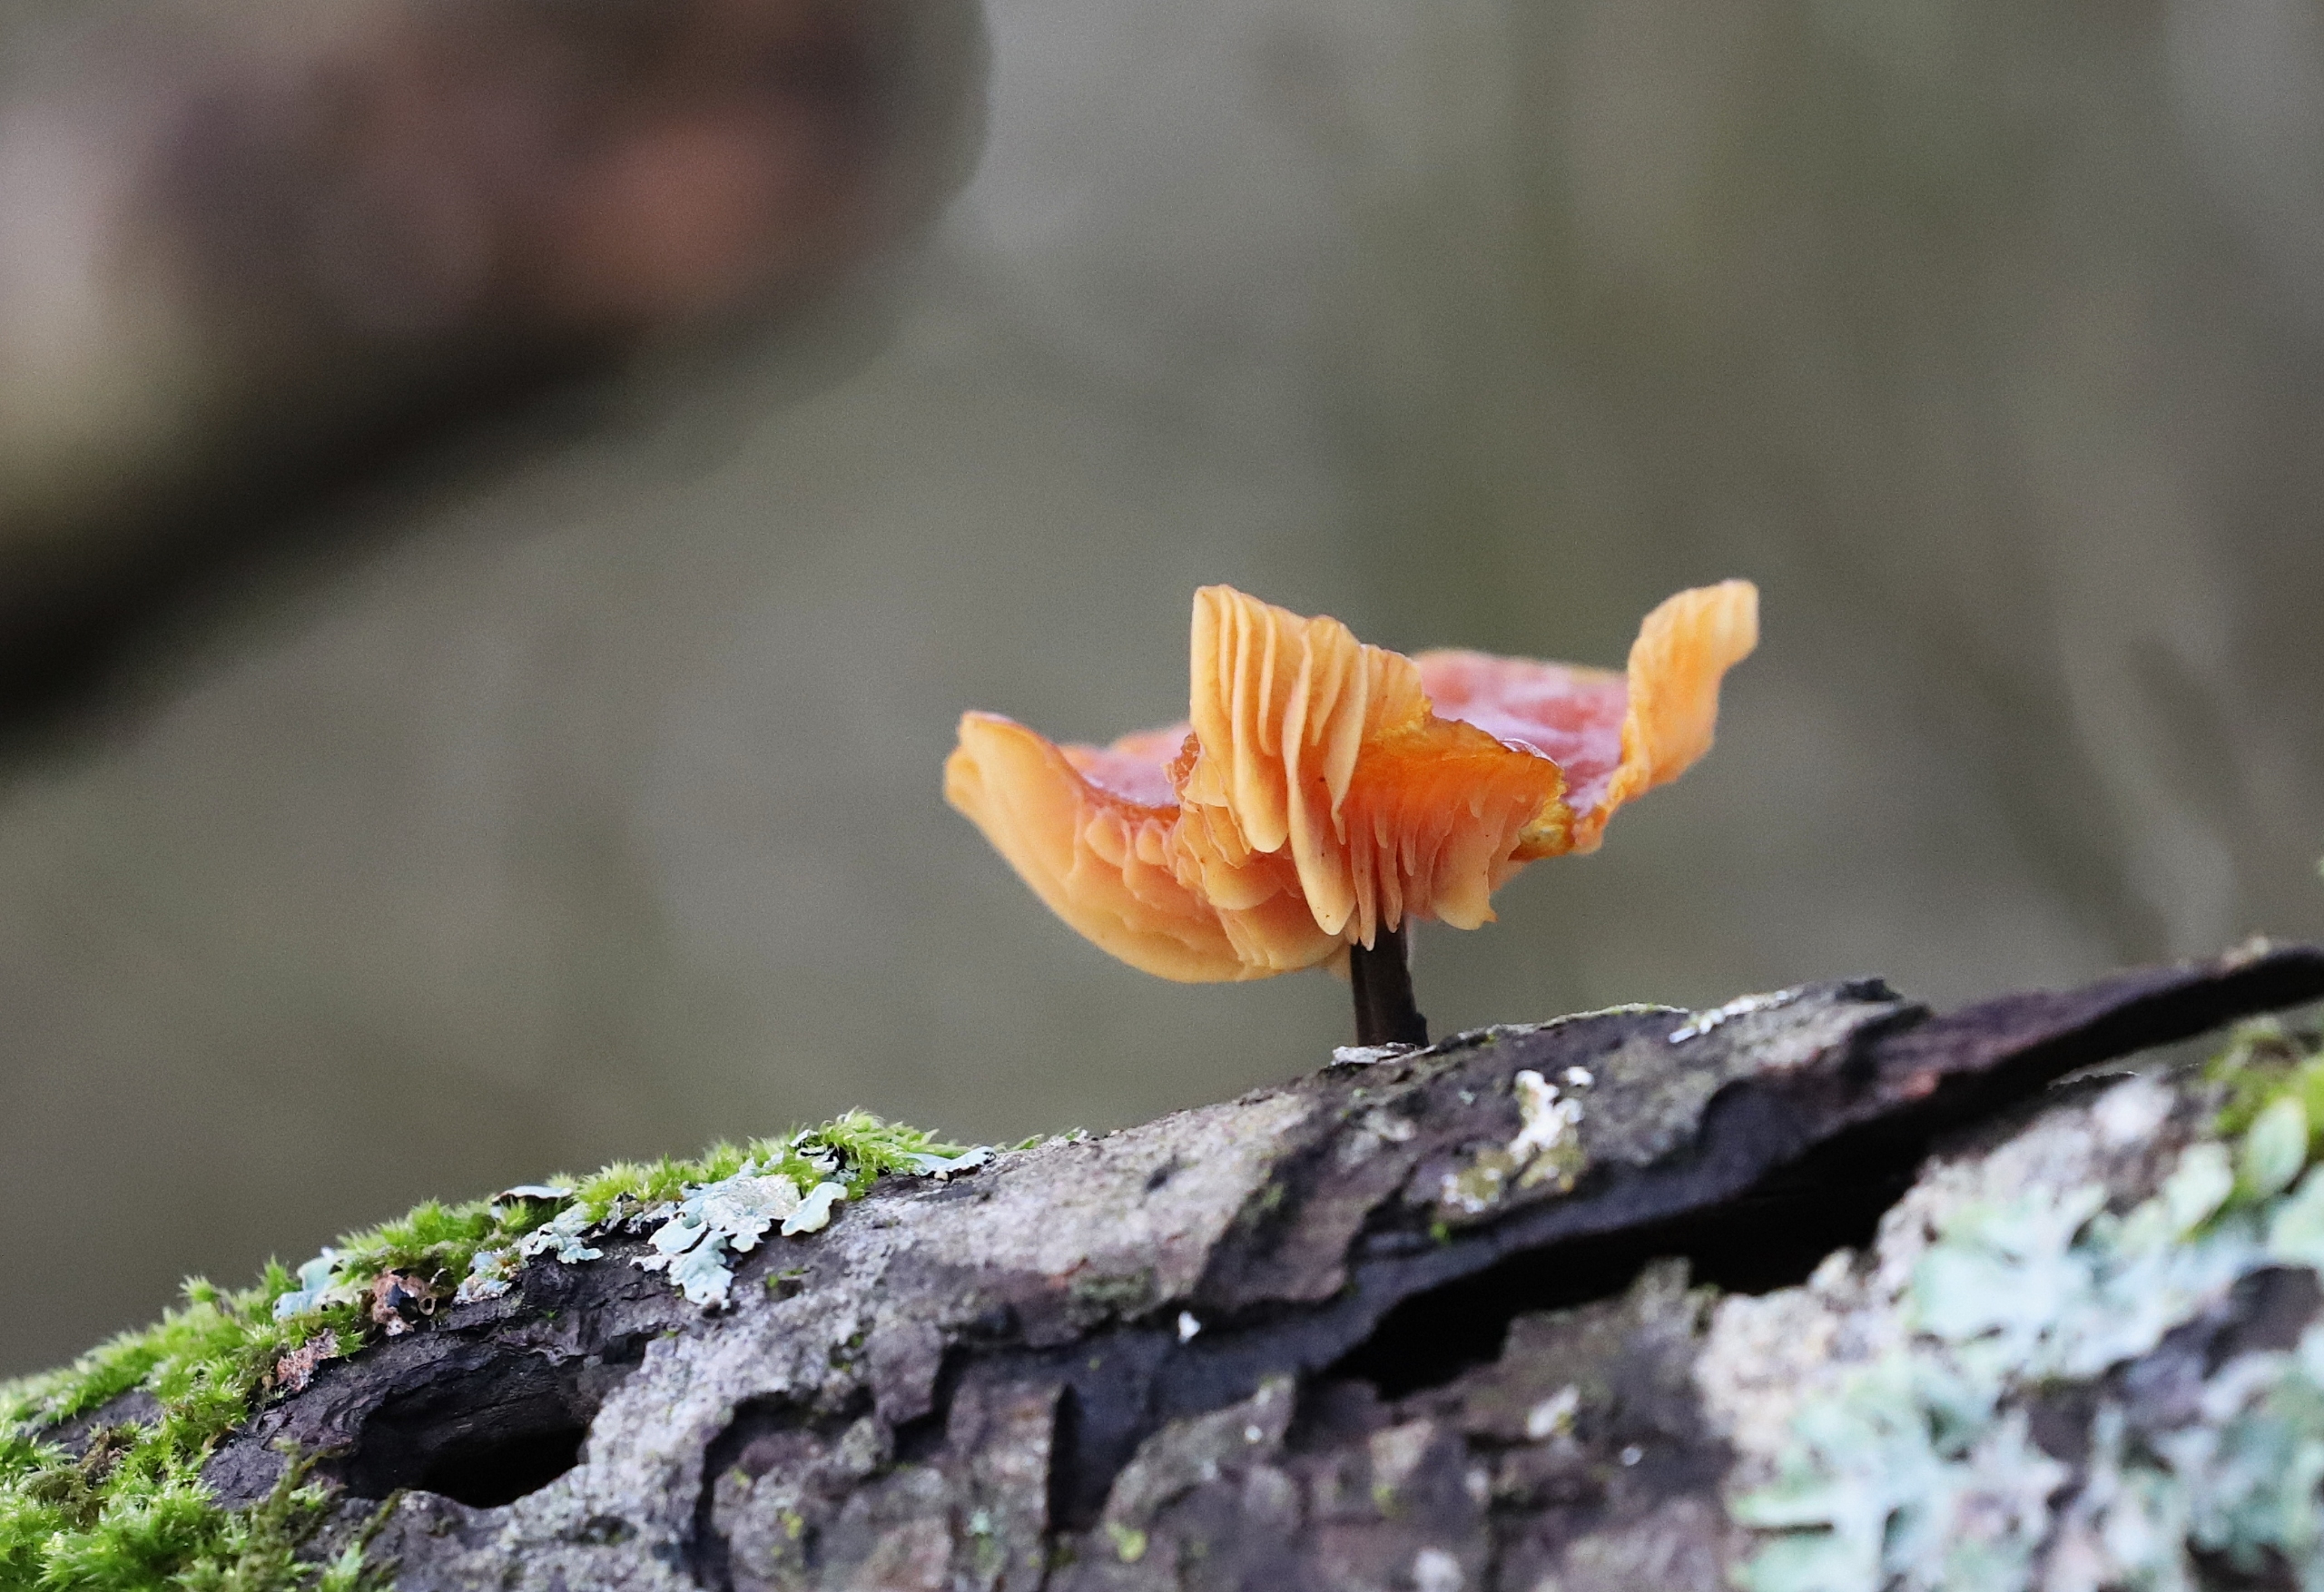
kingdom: Fungi
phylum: Basidiomycota
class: Agaricomycetes
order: Agaricales
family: Physalacriaceae
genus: Flammulina
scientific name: Flammulina
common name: Fløjlsfod
